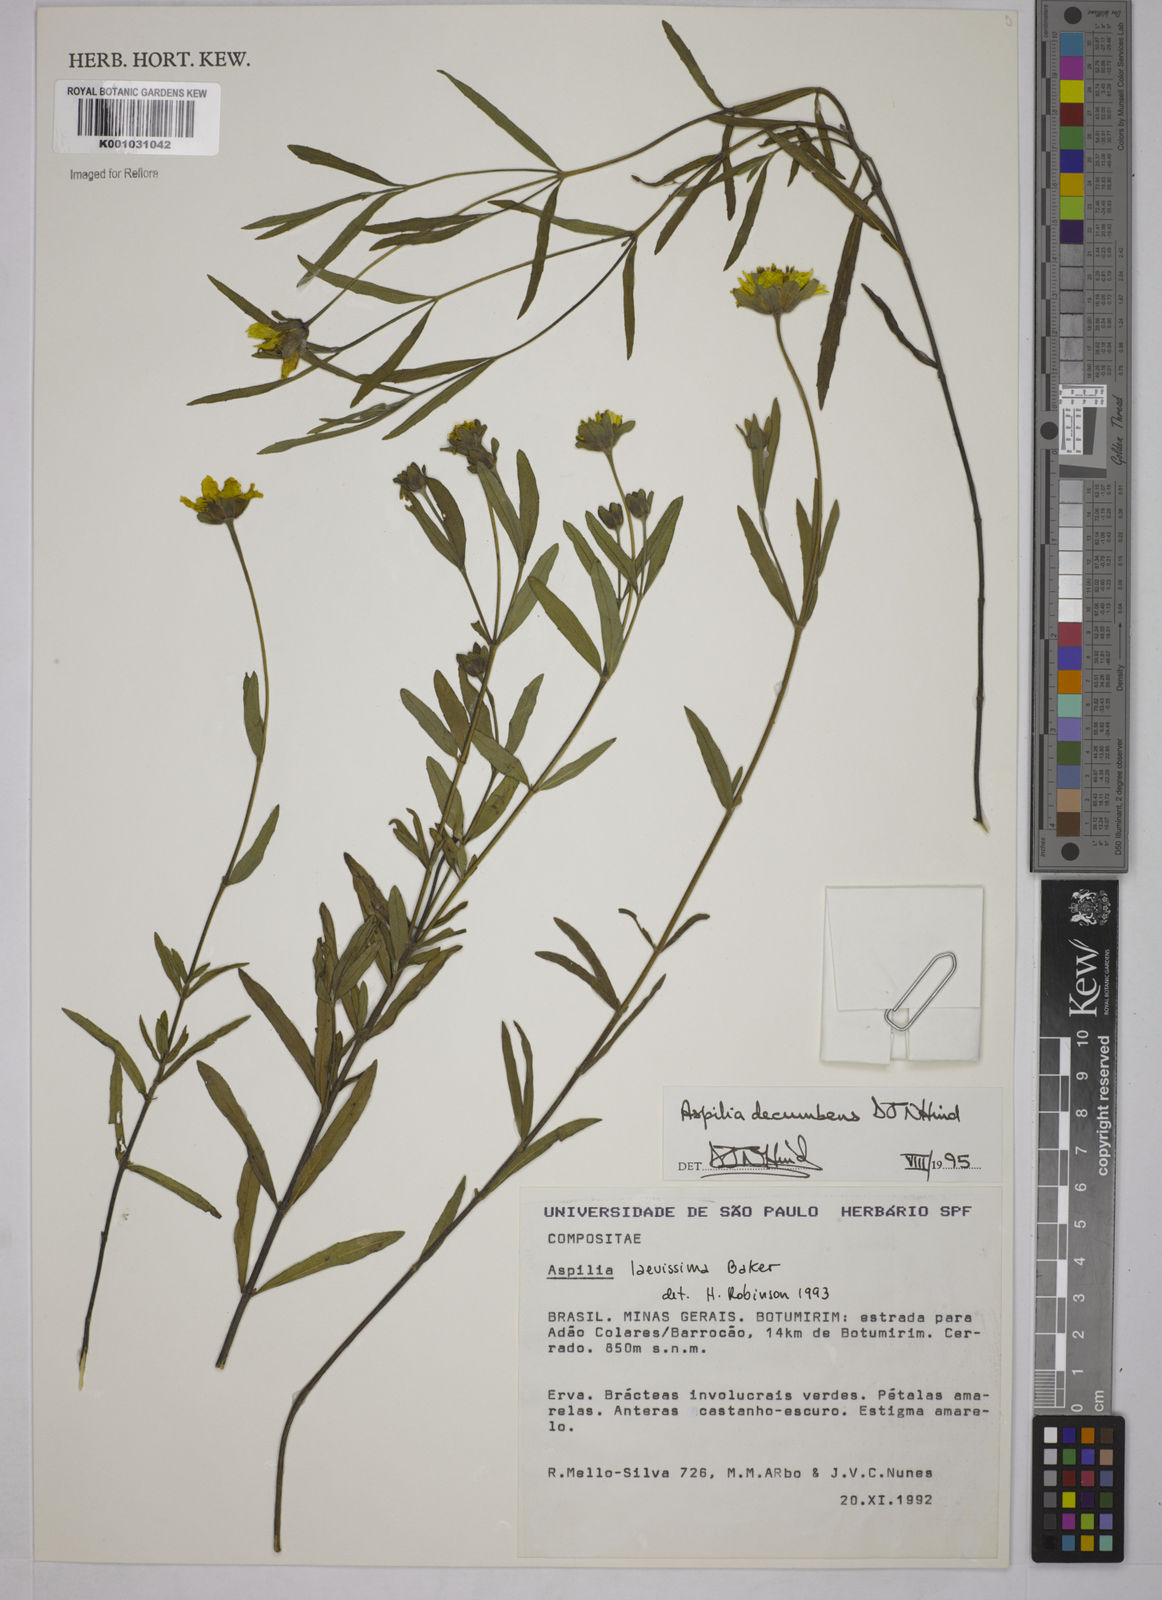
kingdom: Plantae
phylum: Tracheophyta
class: Magnoliopsida
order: Asterales
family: Asteraceae
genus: Wedelia
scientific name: Wedelia subalpestris
